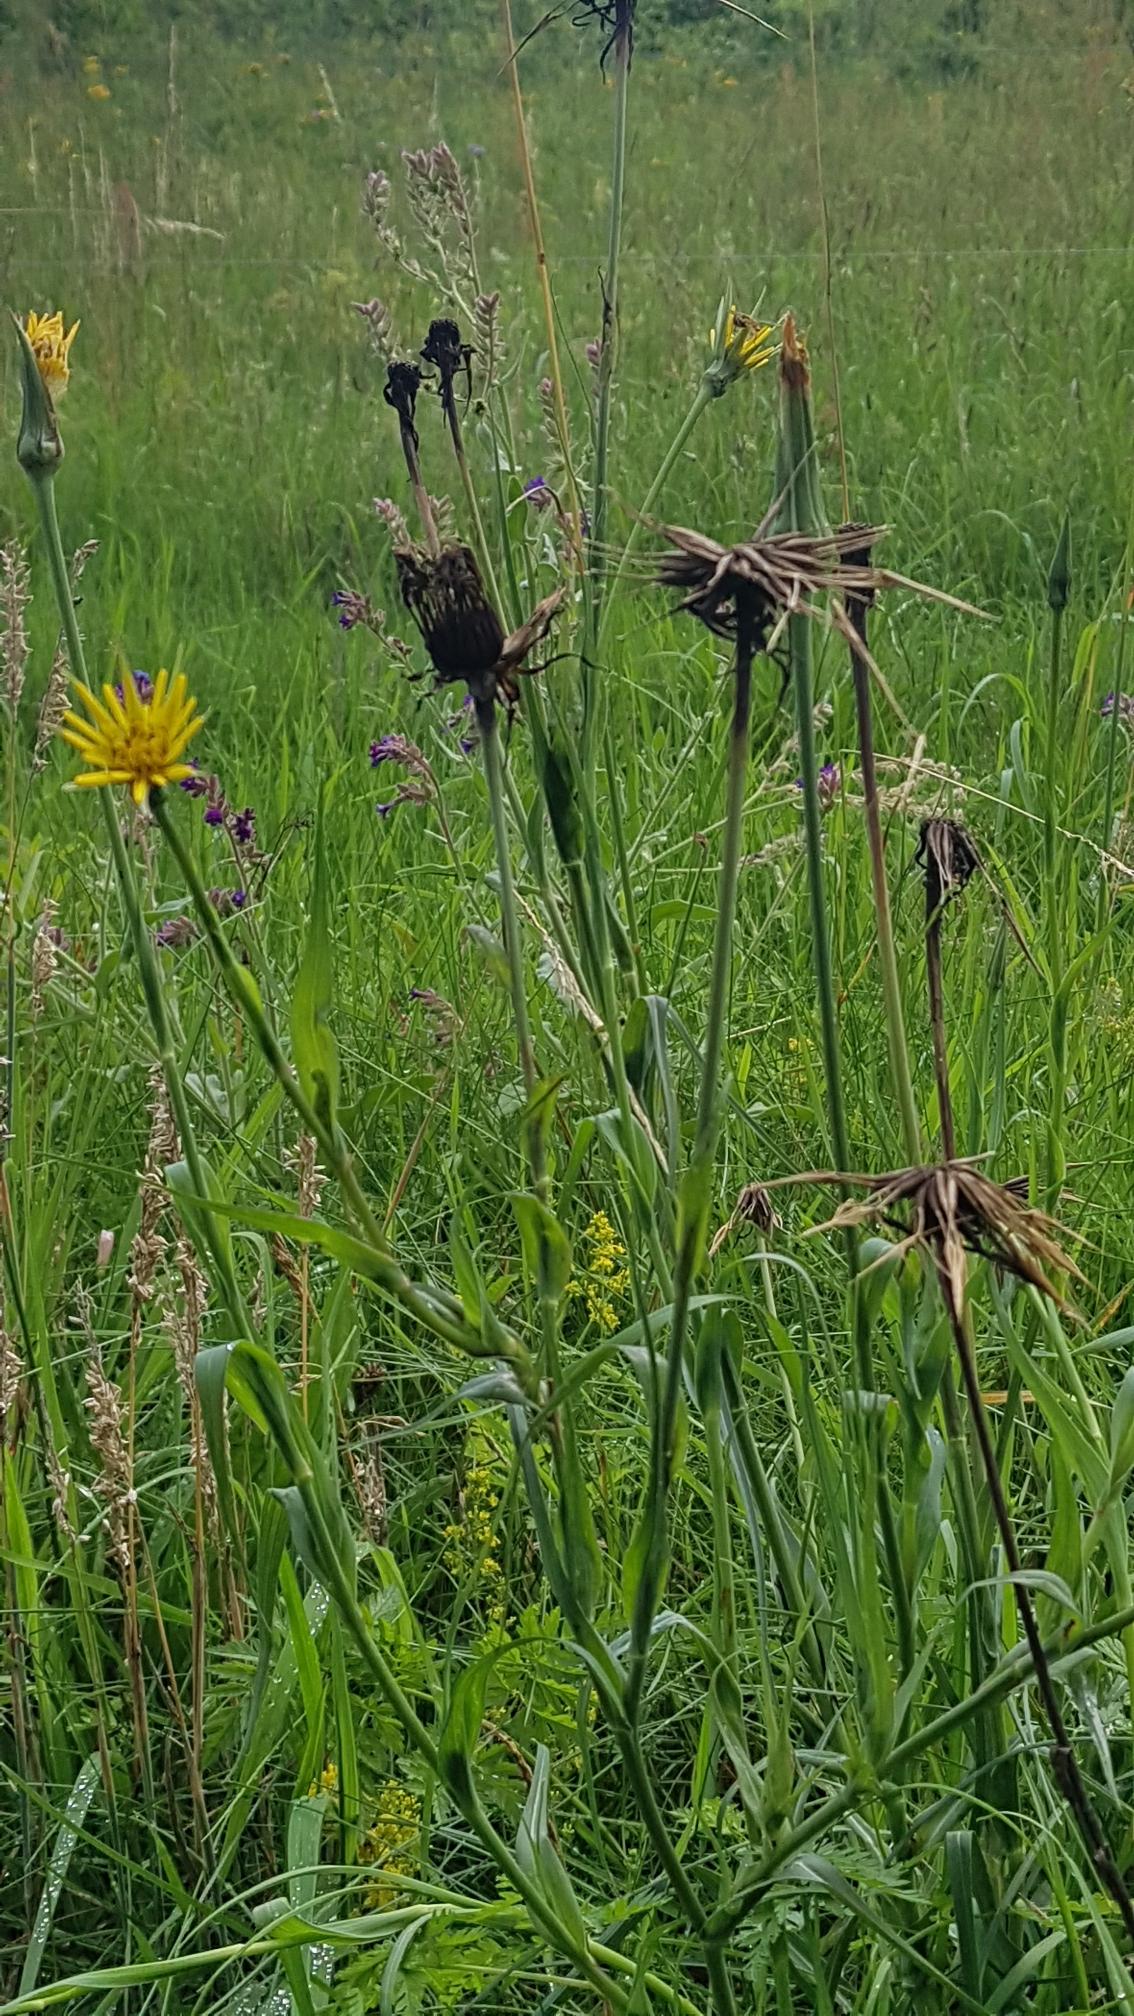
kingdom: Plantae
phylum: Tracheophyta
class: Magnoliopsida
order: Asterales
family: Asteraceae
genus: Tragopogon
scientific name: Tragopogon pratensis
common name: Gedeskæg
